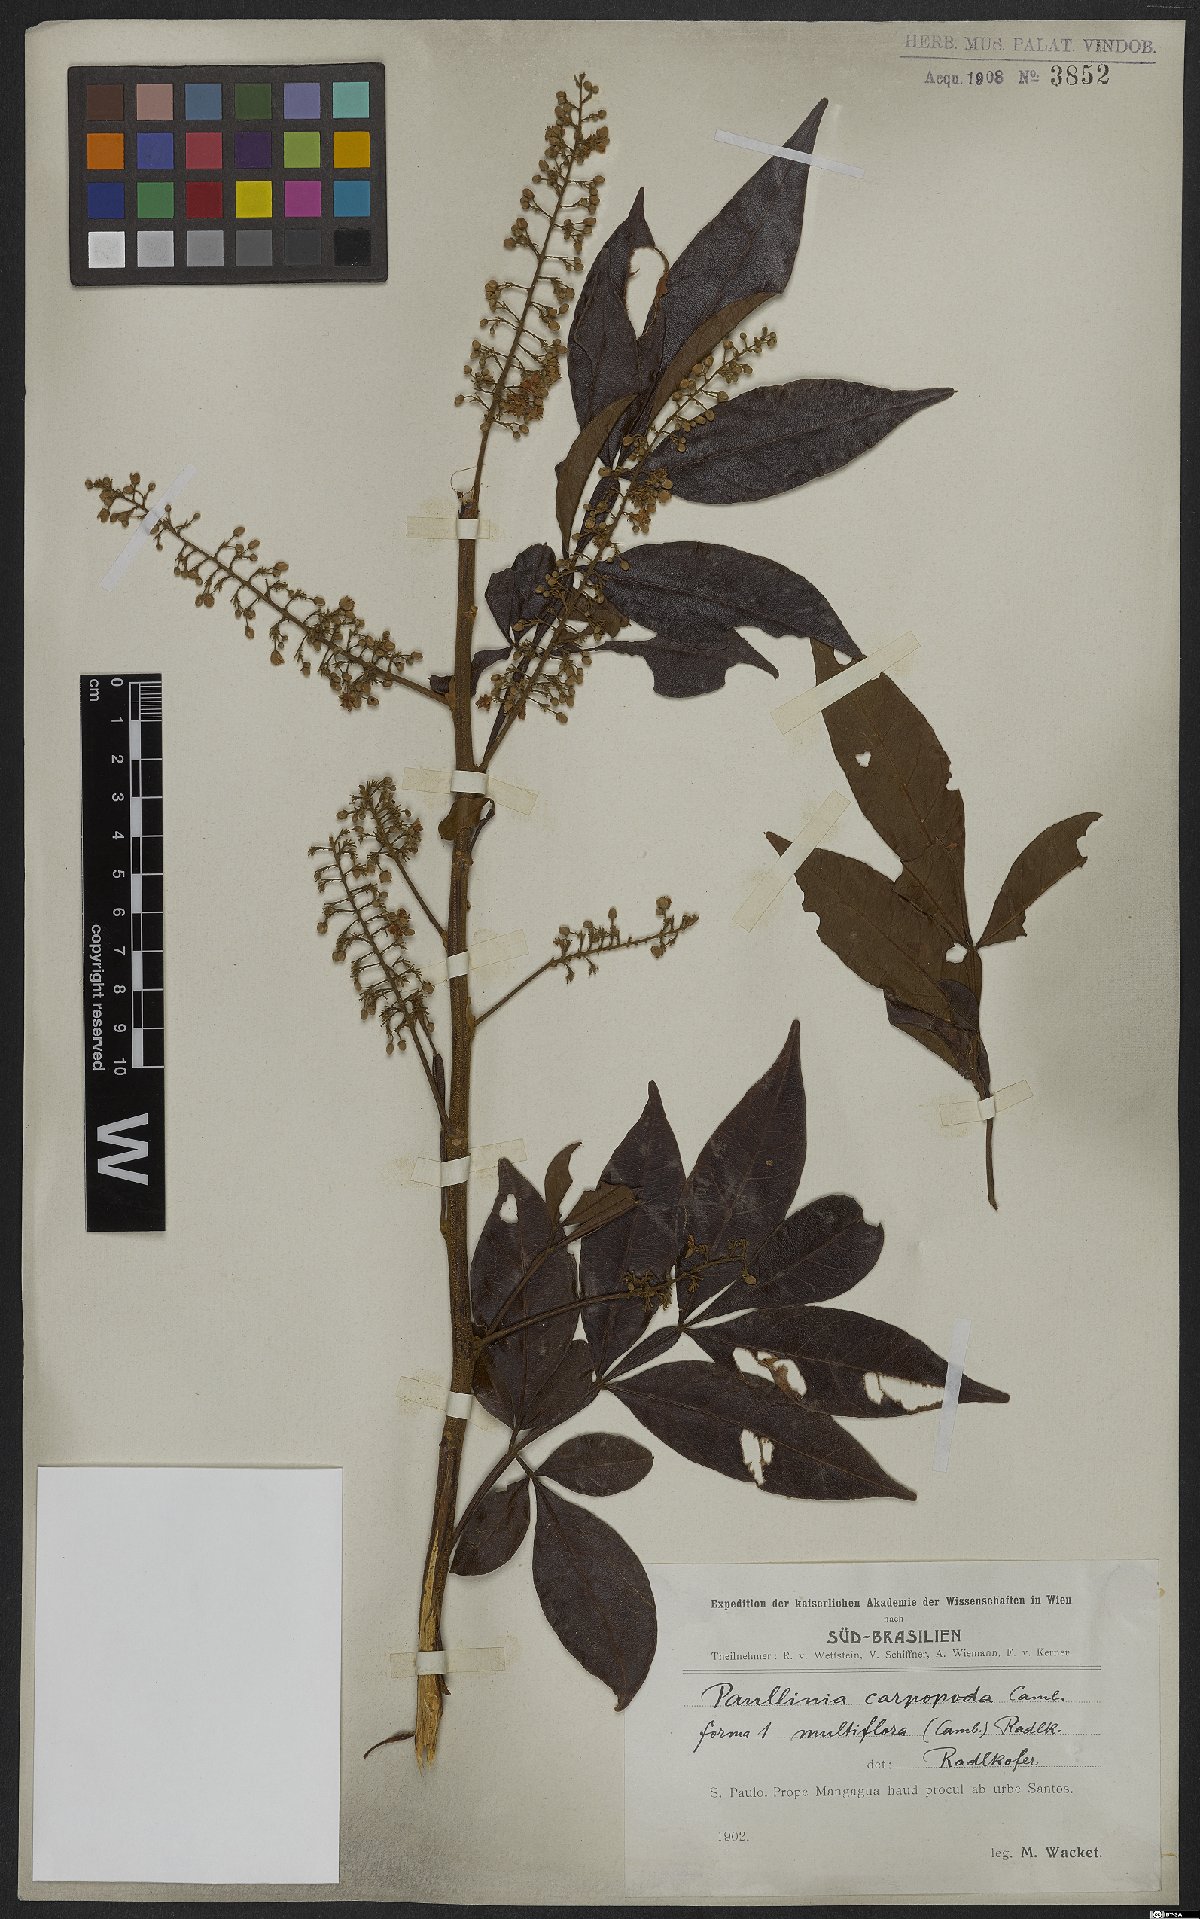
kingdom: Plantae
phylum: Tracheophyta
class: Magnoliopsida
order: Sapindales
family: Sapindaceae
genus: Paullinia
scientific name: Paullinia carpopoda
